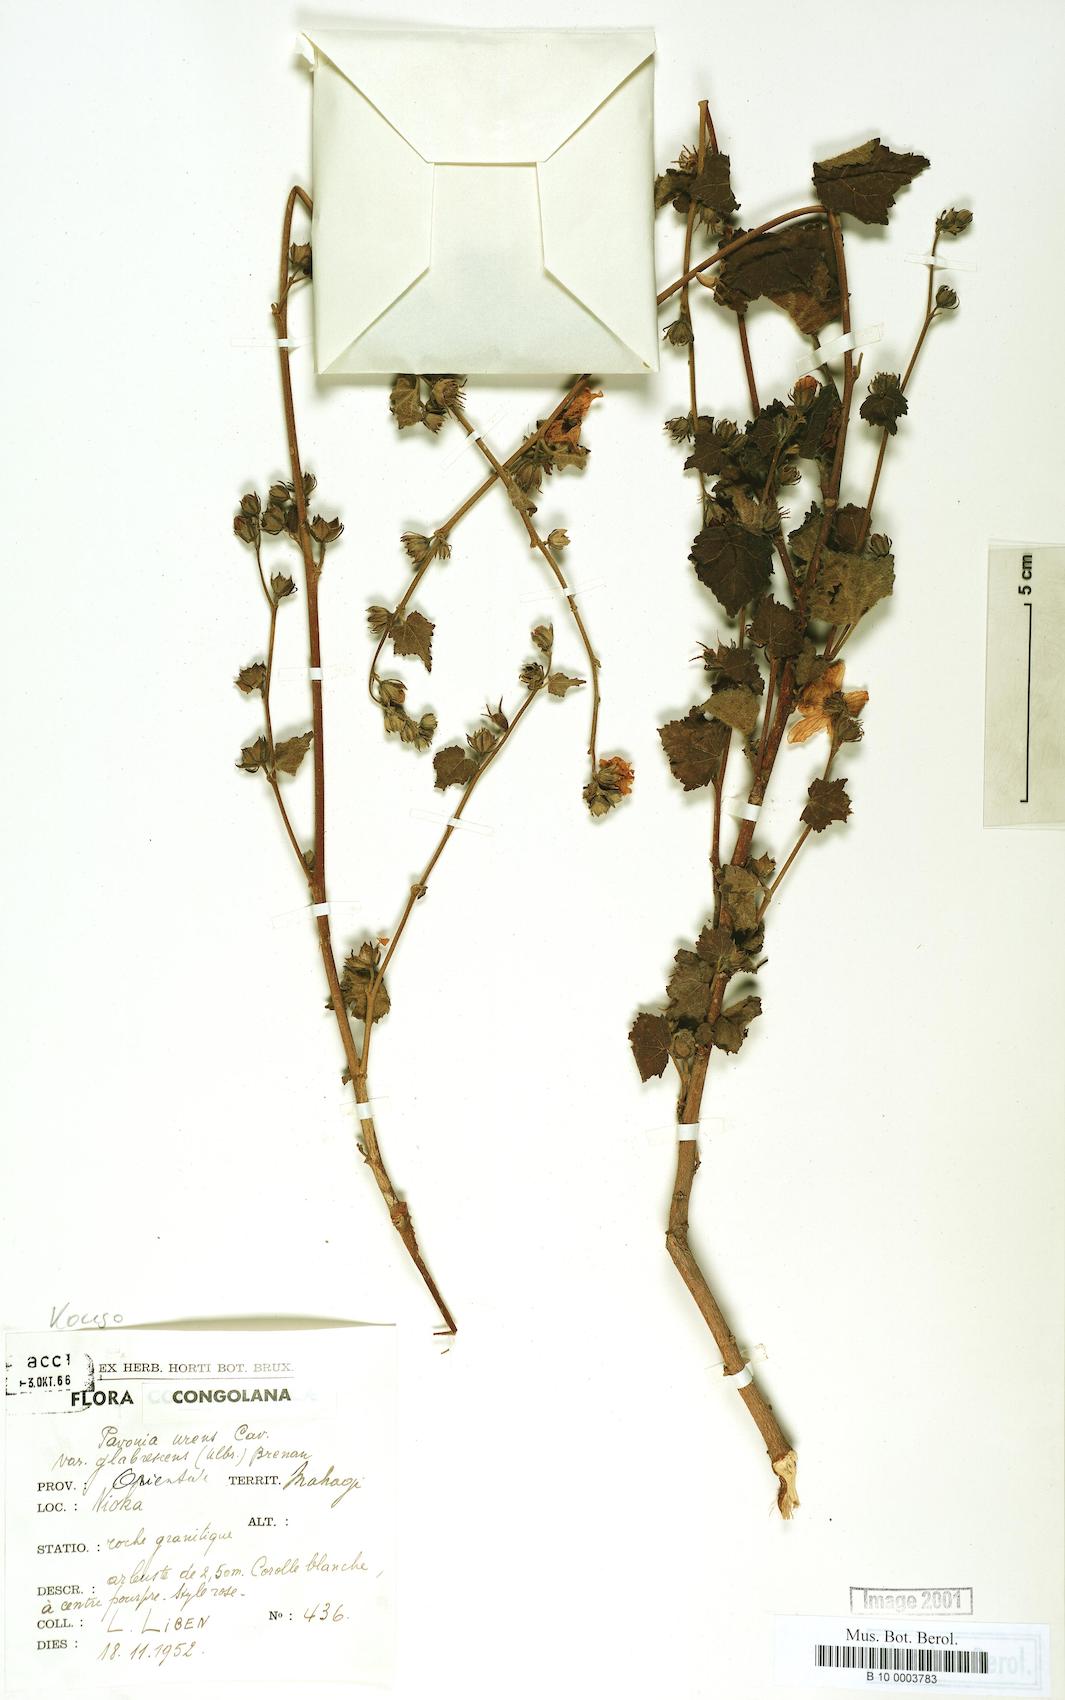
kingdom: Plantae
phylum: Tracheophyta
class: Magnoliopsida
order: Malvales
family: Malvaceae
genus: Pavonia
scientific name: Pavonia schimperiana
